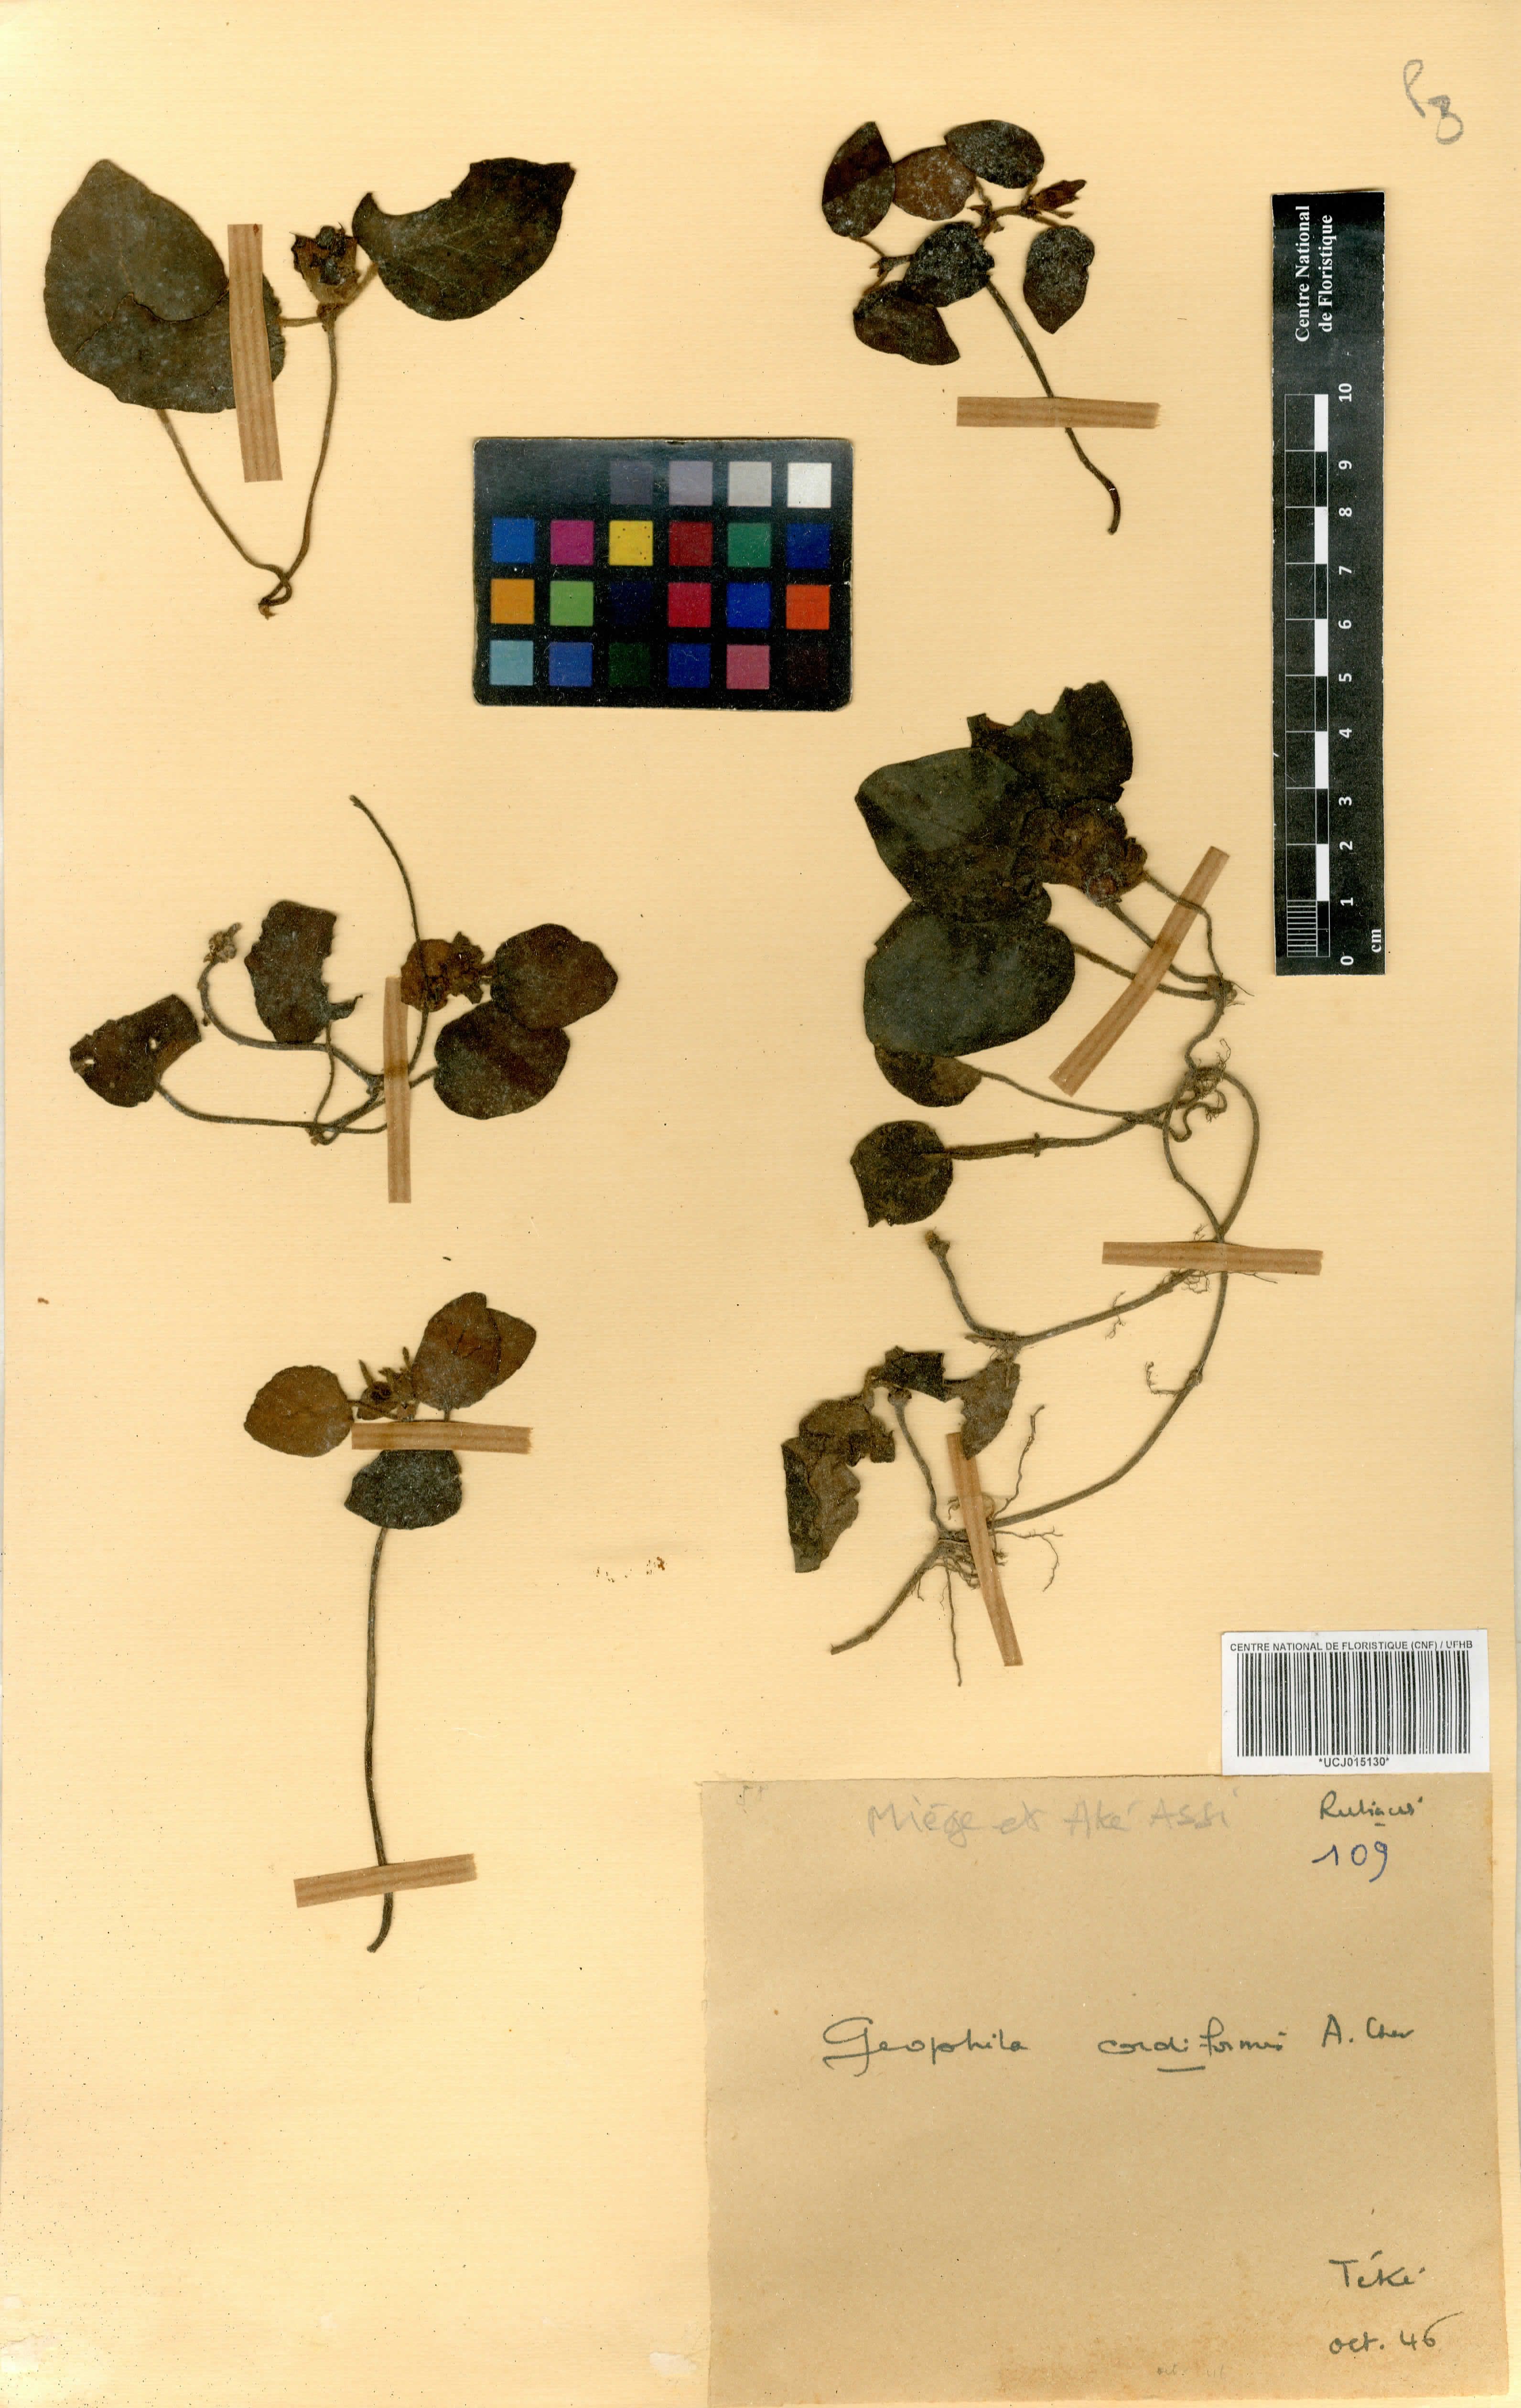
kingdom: Plantae
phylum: Tracheophyta
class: Magnoliopsida
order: Gentianales
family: Rubiaceae
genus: Geophila
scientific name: Geophila cordiformis
